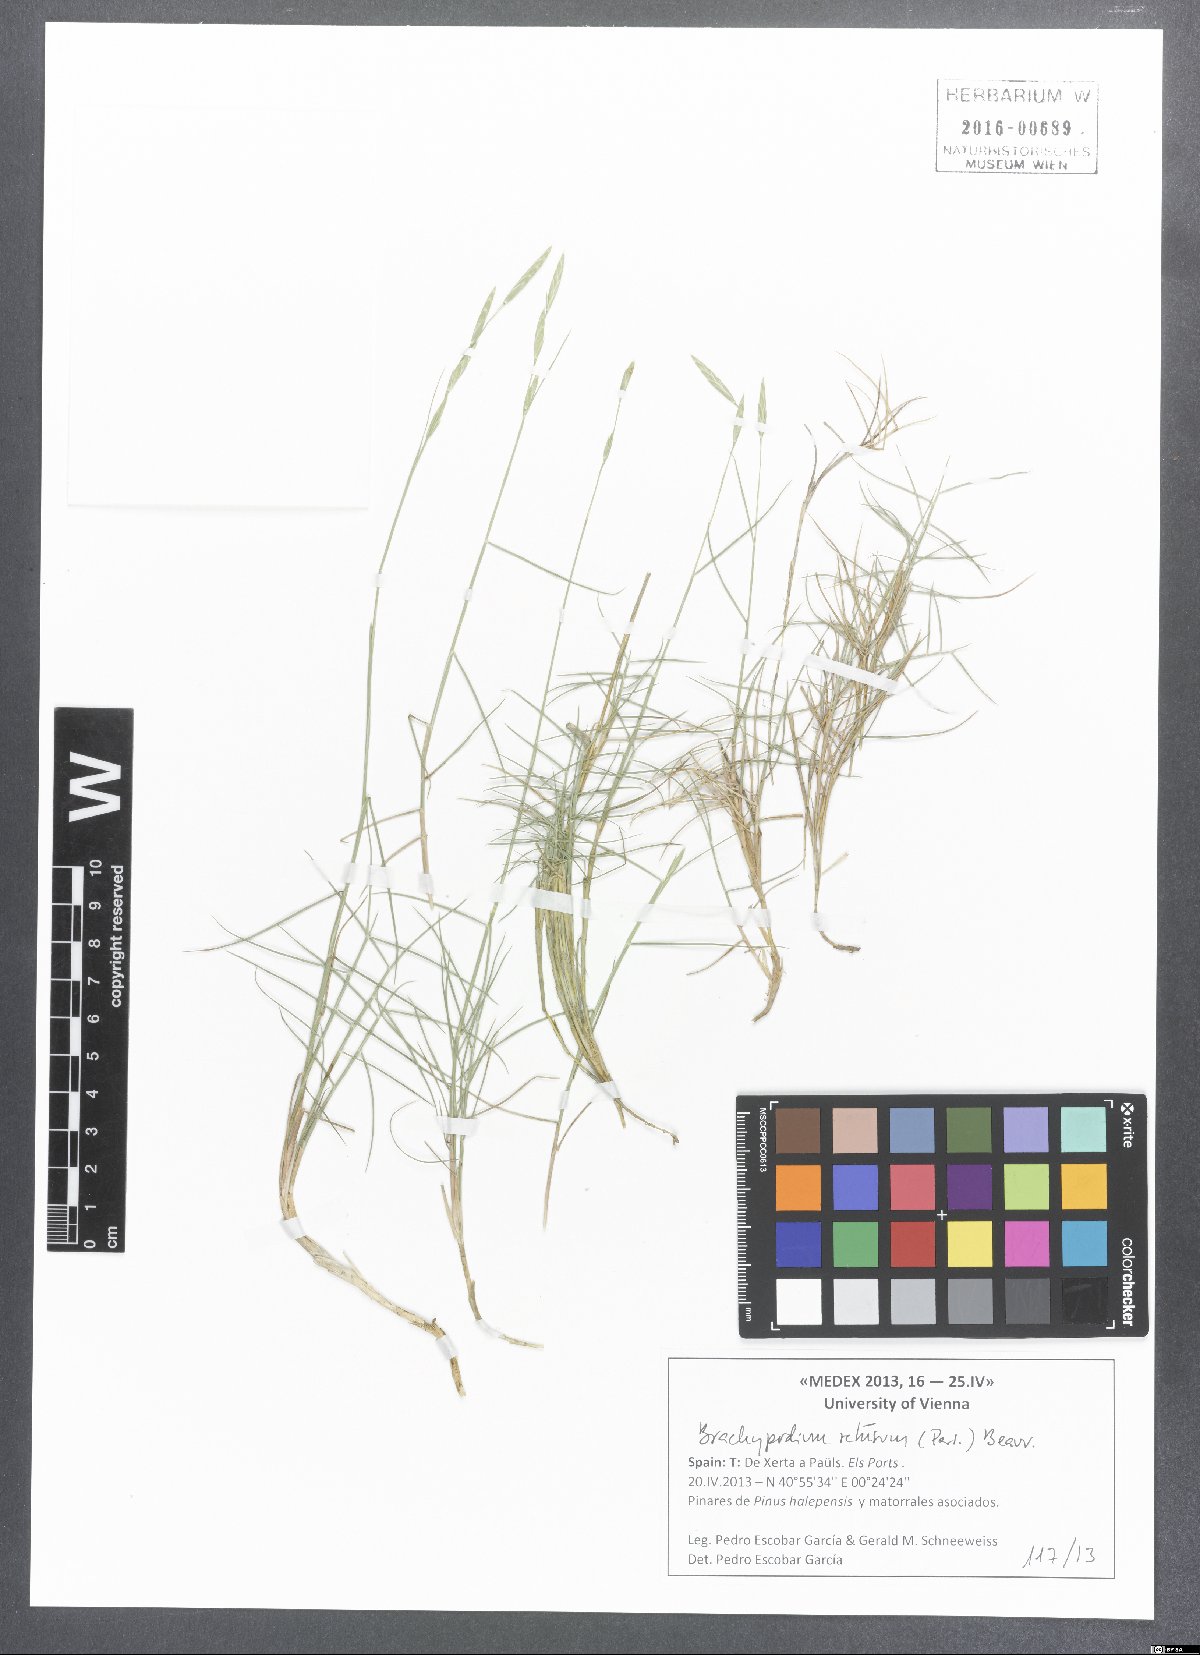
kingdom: Plantae
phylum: Tracheophyta
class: Liliopsida
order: Poales
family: Poaceae
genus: Brachypodium
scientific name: Brachypodium retusum
